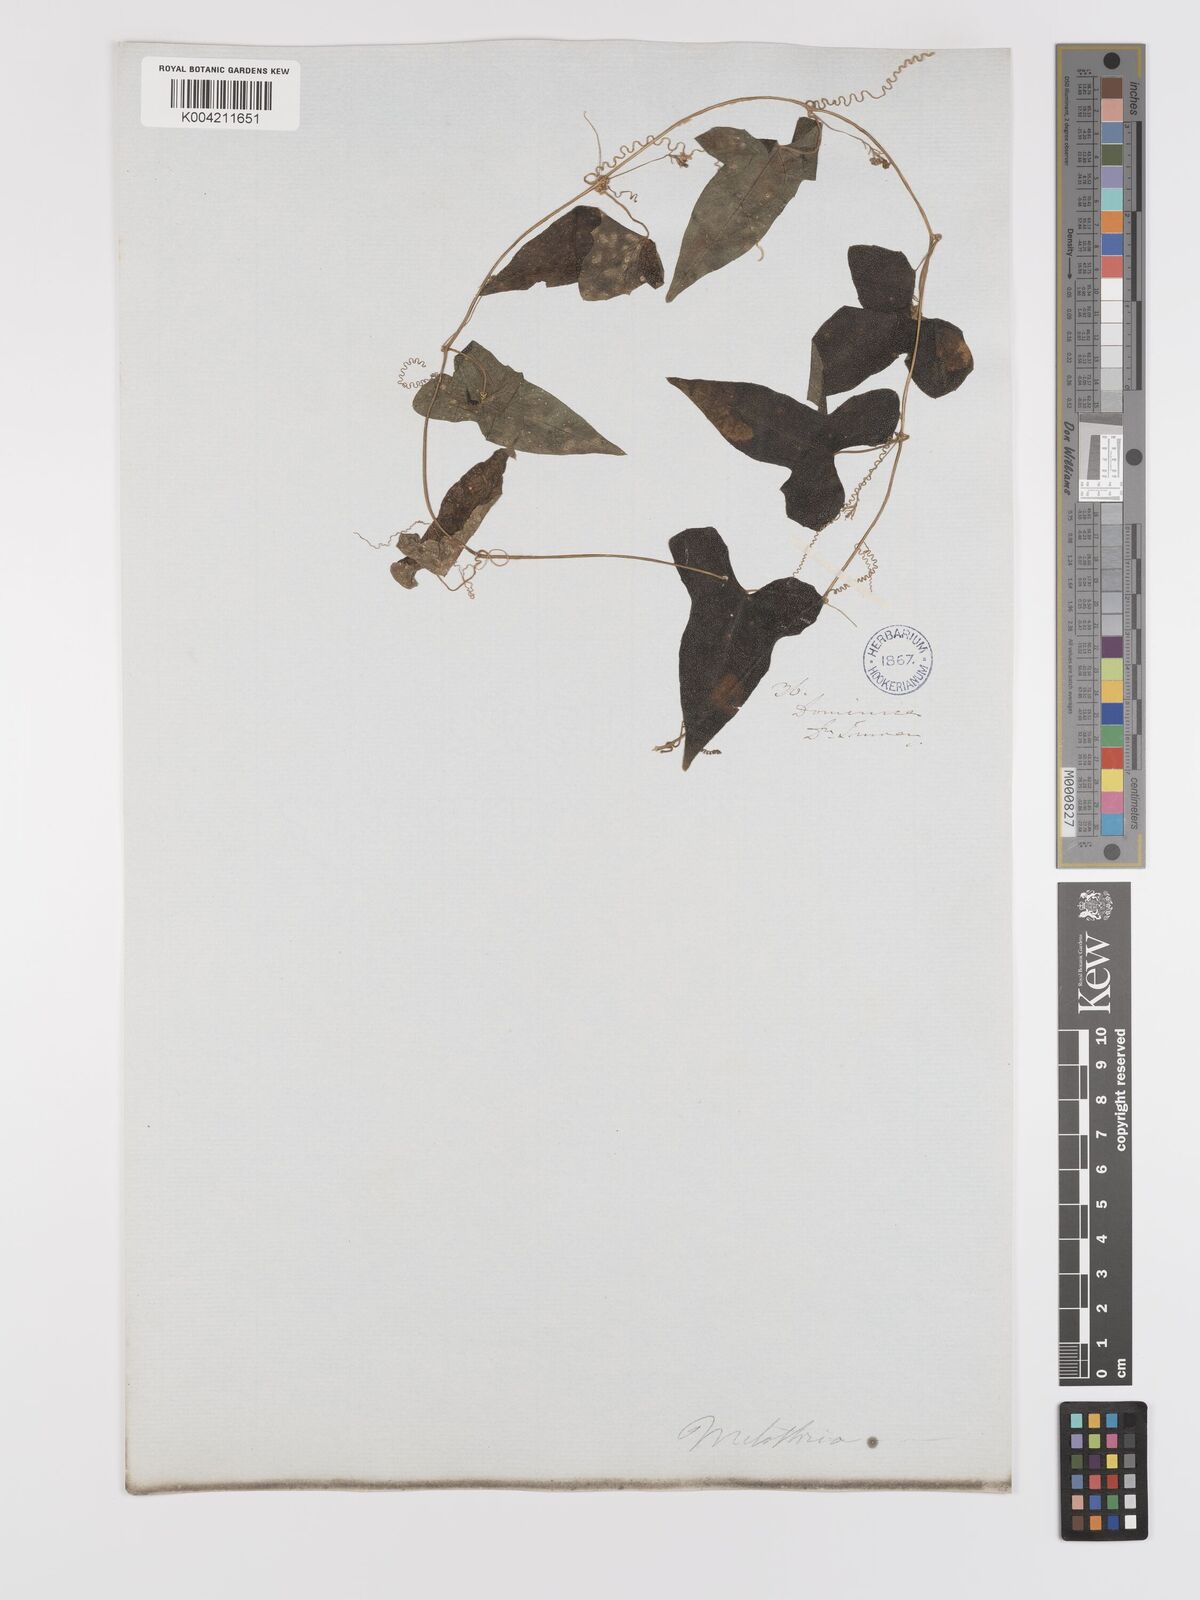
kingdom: Plantae
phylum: Tracheophyta
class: Magnoliopsida
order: Cucurbitales
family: Cucurbitaceae
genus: Melothria
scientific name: Melothria
